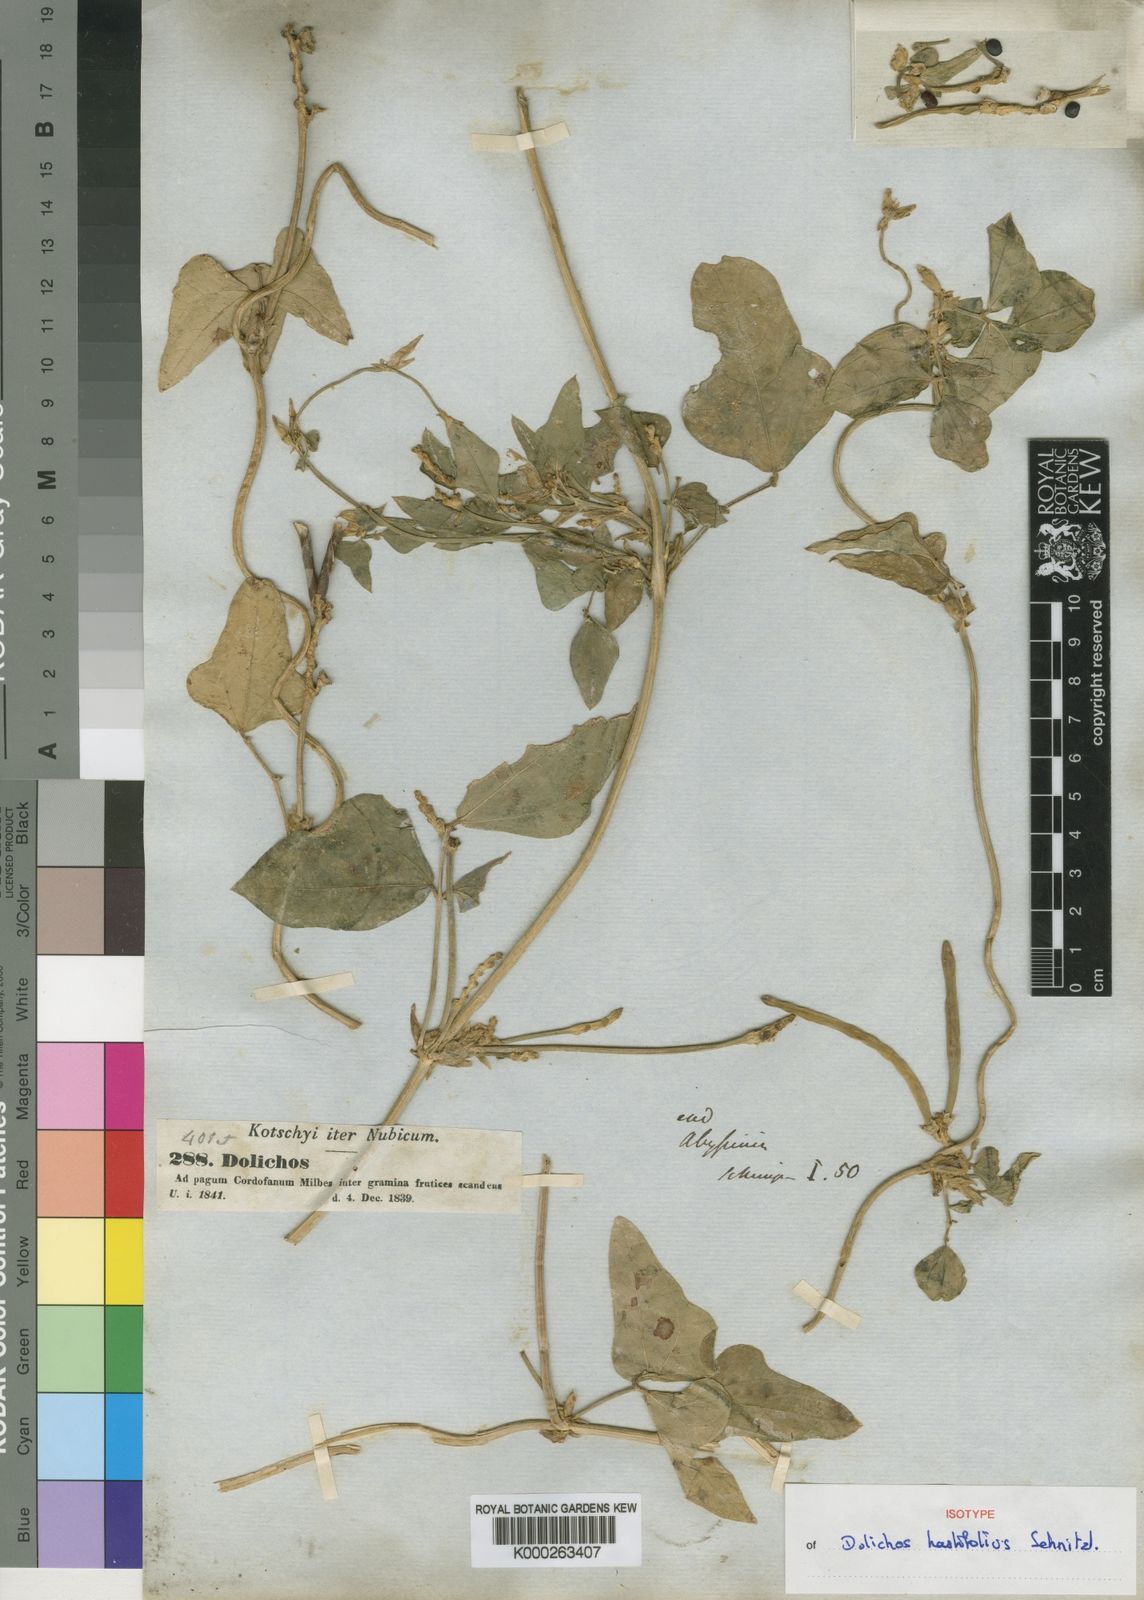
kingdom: Plantae
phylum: Tracheophyta
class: Magnoliopsida
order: Fabales
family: Fabaceae
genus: Vigna
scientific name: Vigna unguiculata
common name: Cowpea
